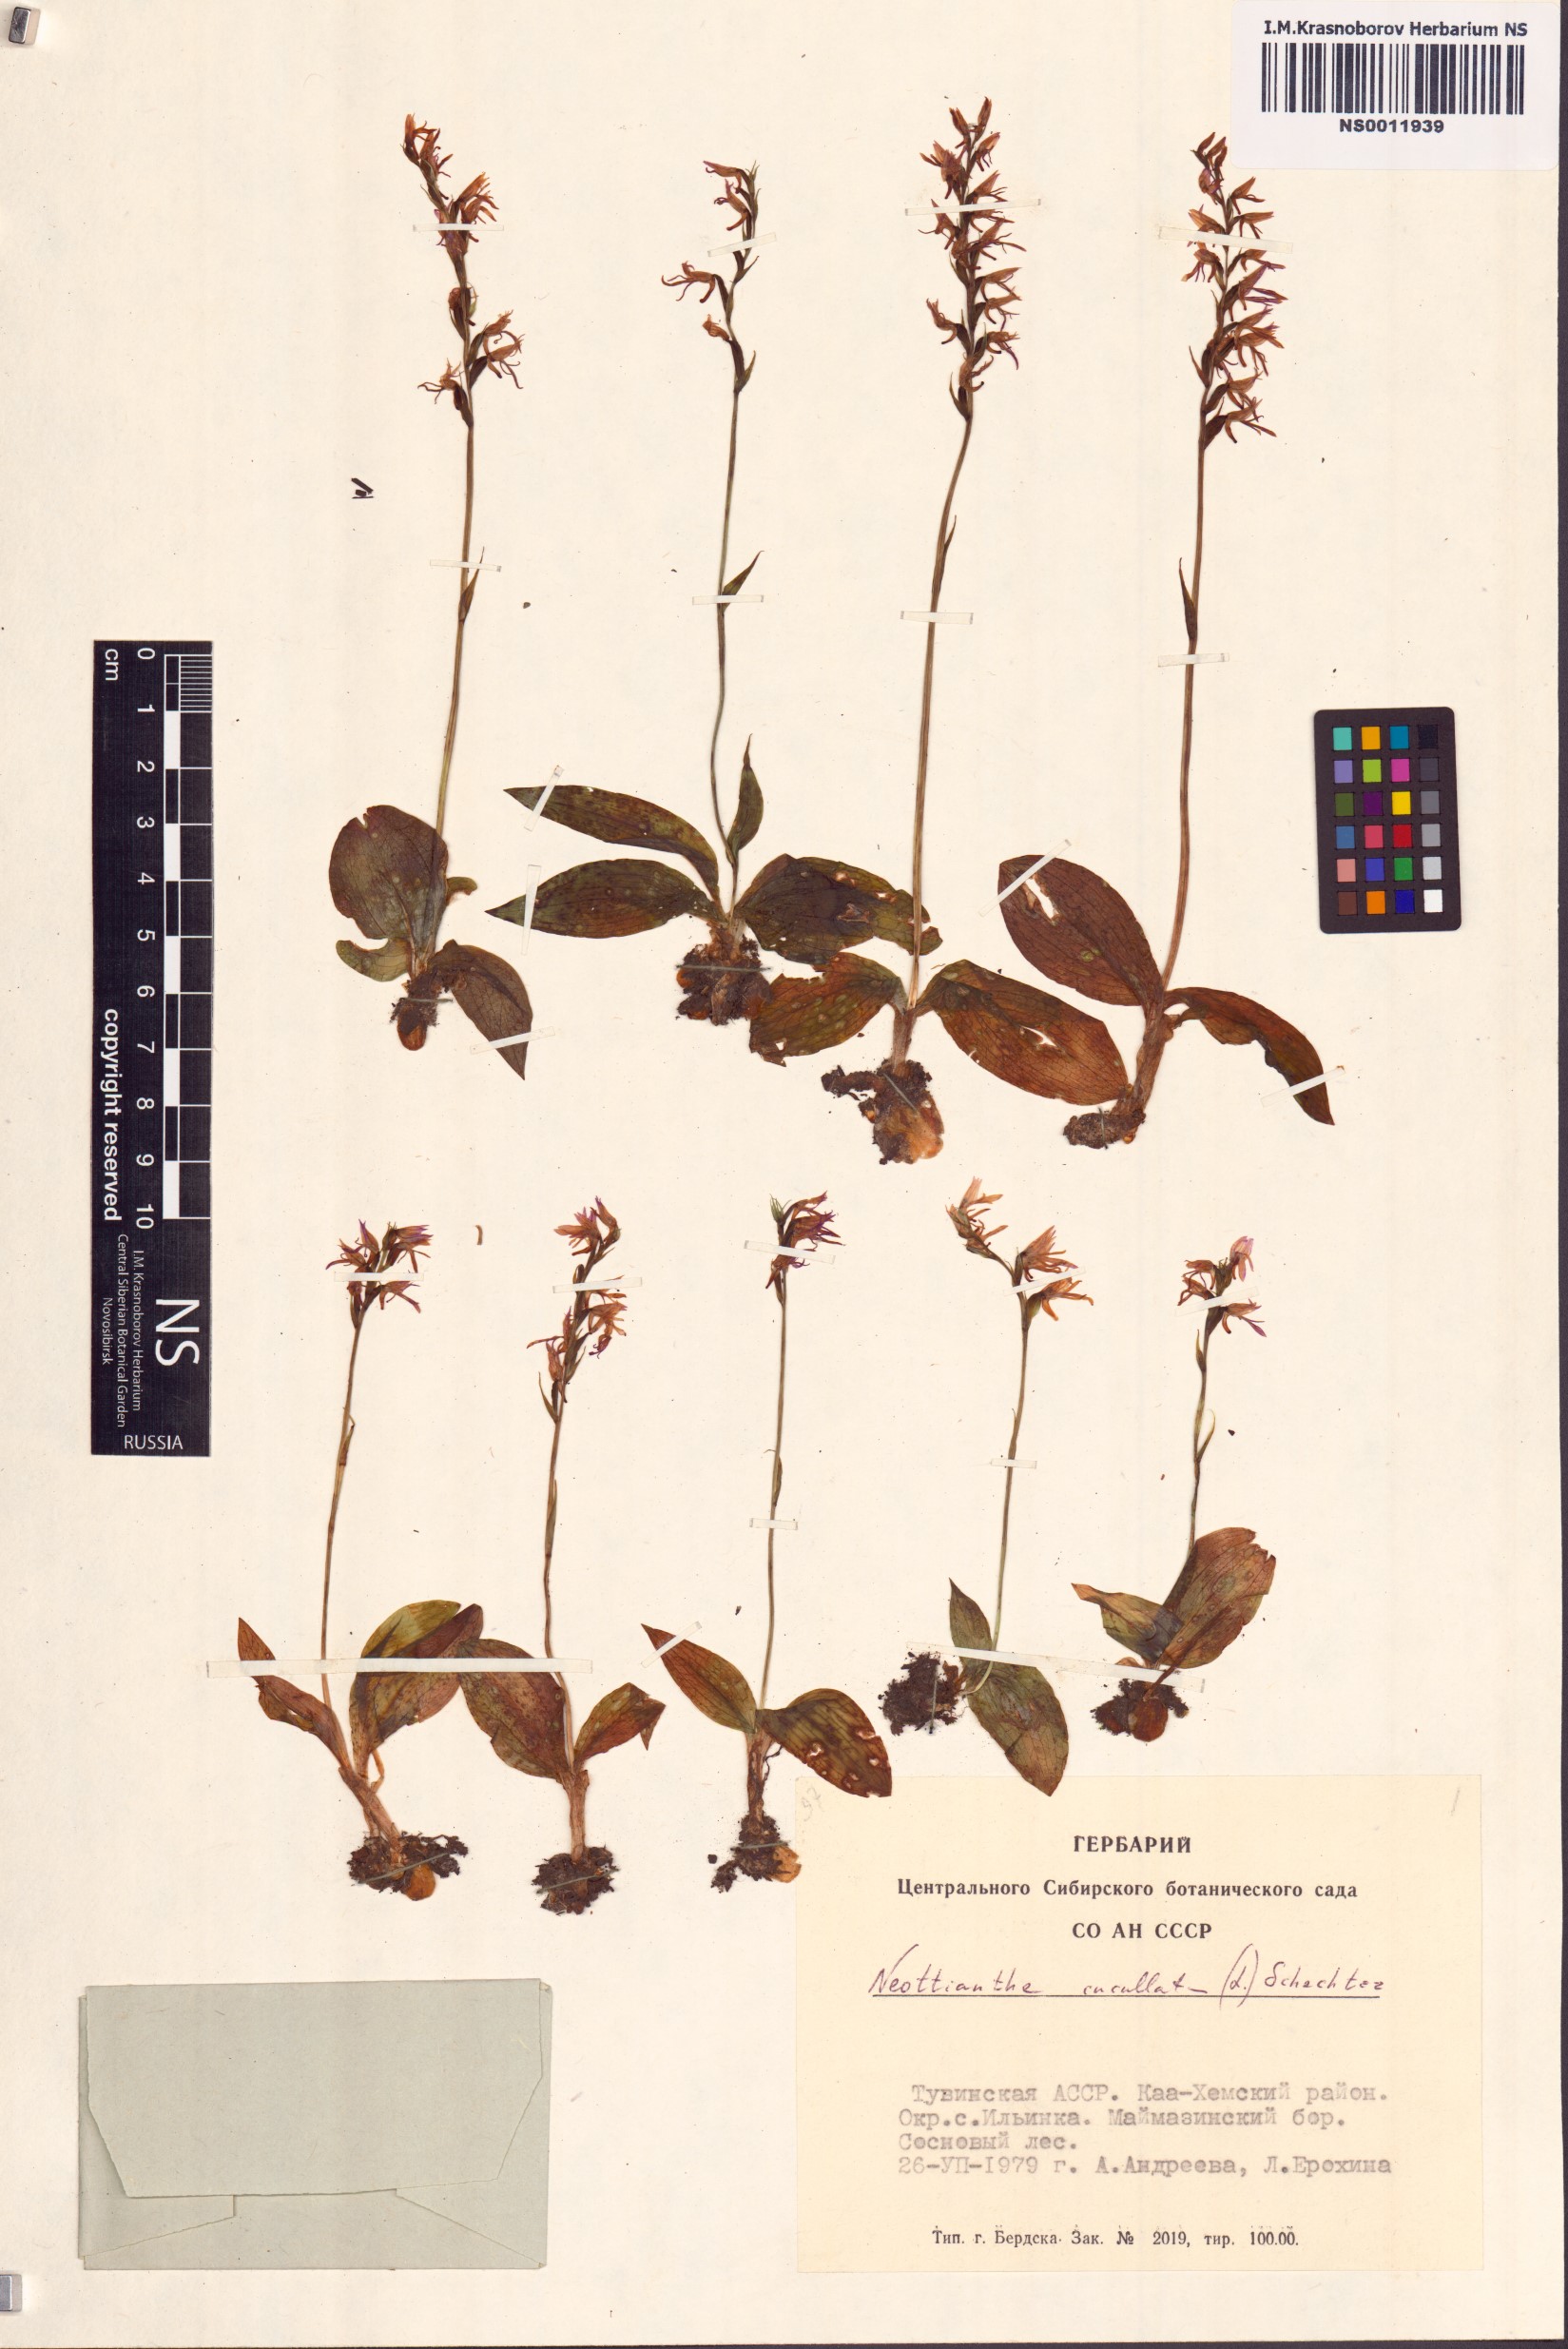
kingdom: Plantae
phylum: Tracheophyta
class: Liliopsida
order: Asparagales
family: Orchidaceae
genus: Hemipilia
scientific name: Hemipilia cucullata
